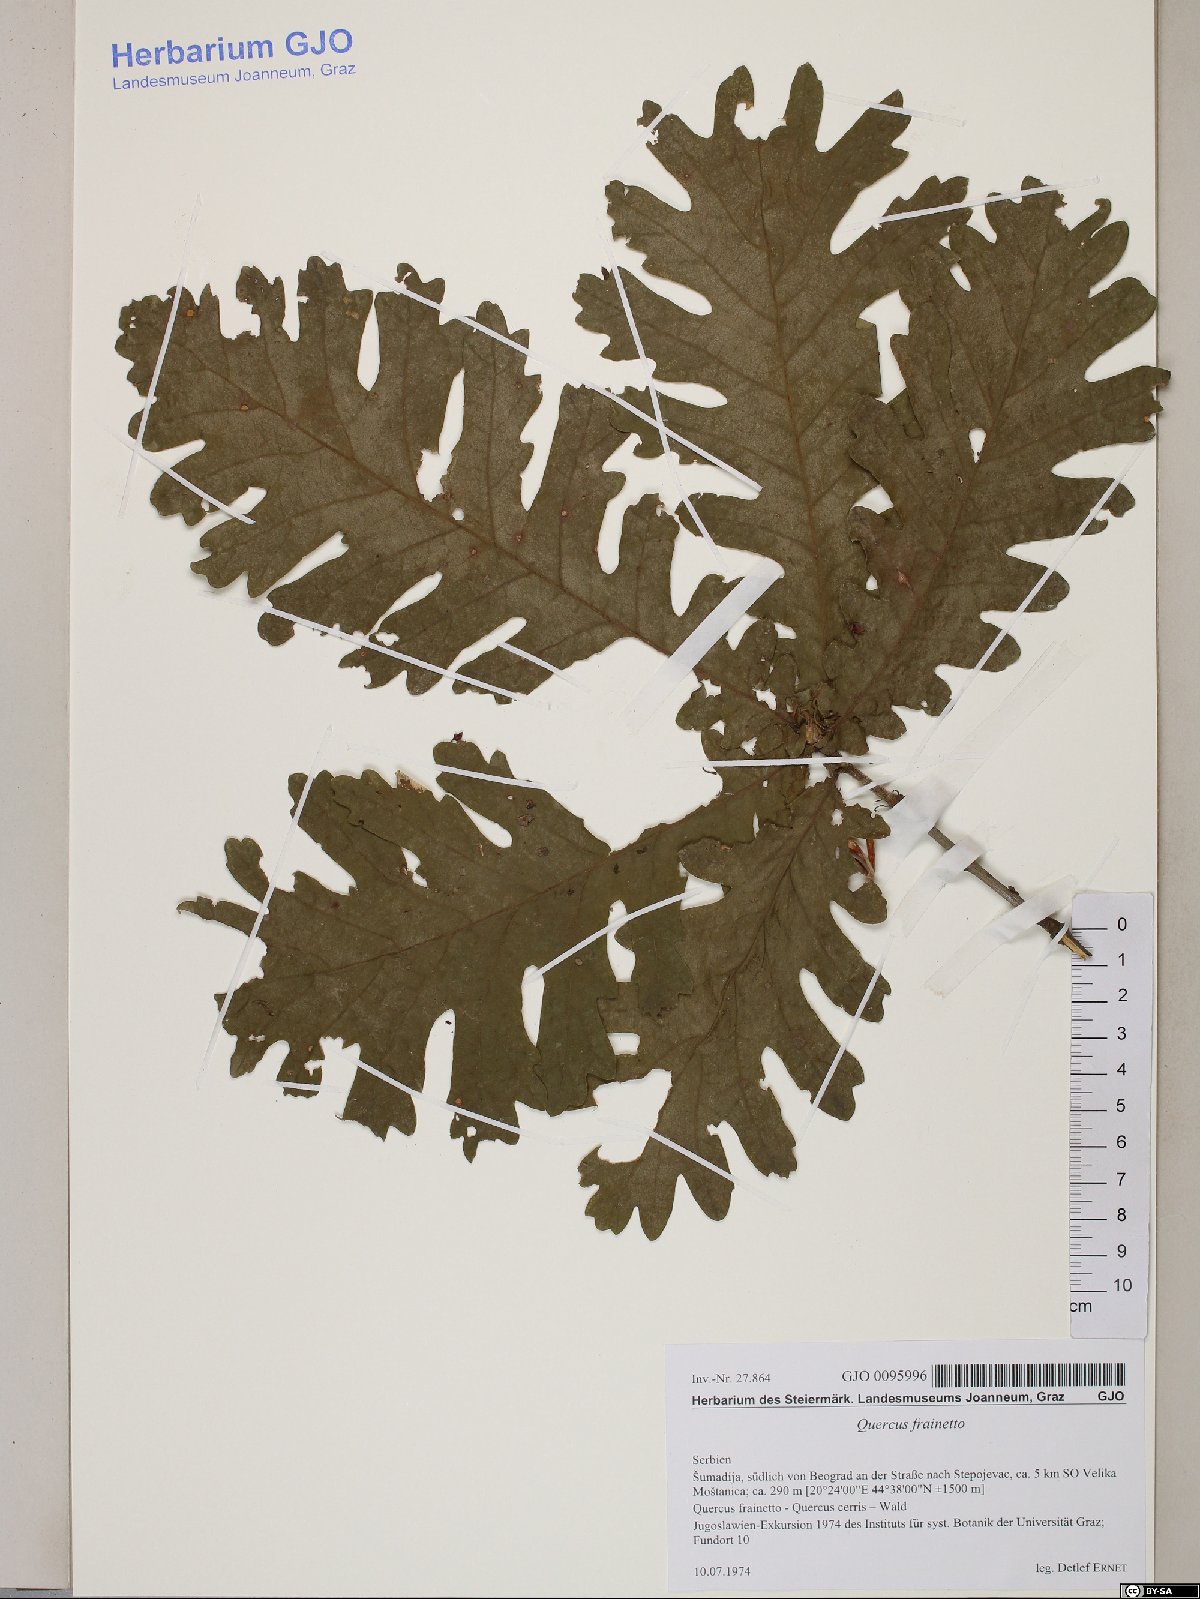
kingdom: Plantae
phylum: Tracheophyta
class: Magnoliopsida
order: Fagales
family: Fagaceae
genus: Quercus
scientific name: Quercus conferta
